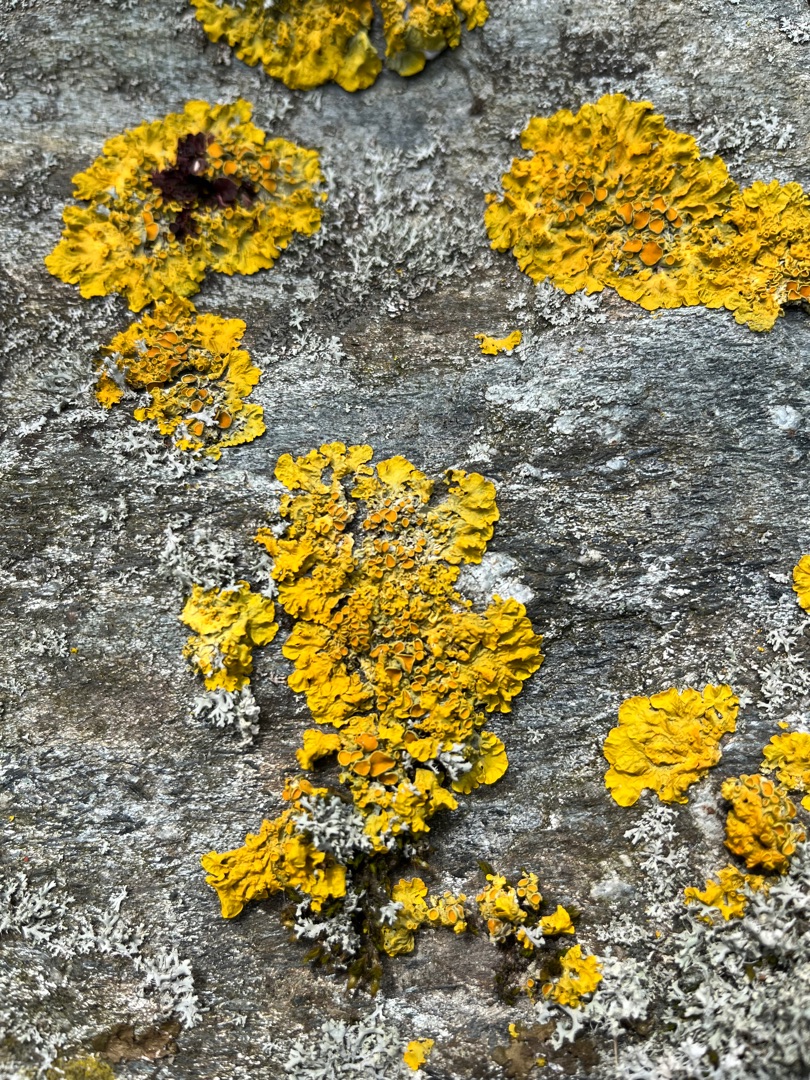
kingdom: Fungi
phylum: Ascomycota
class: Lecanoromycetes
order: Teloschistales
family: Teloschistaceae
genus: Xanthoria
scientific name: Xanthoria parietina
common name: Almindelig væggelav
